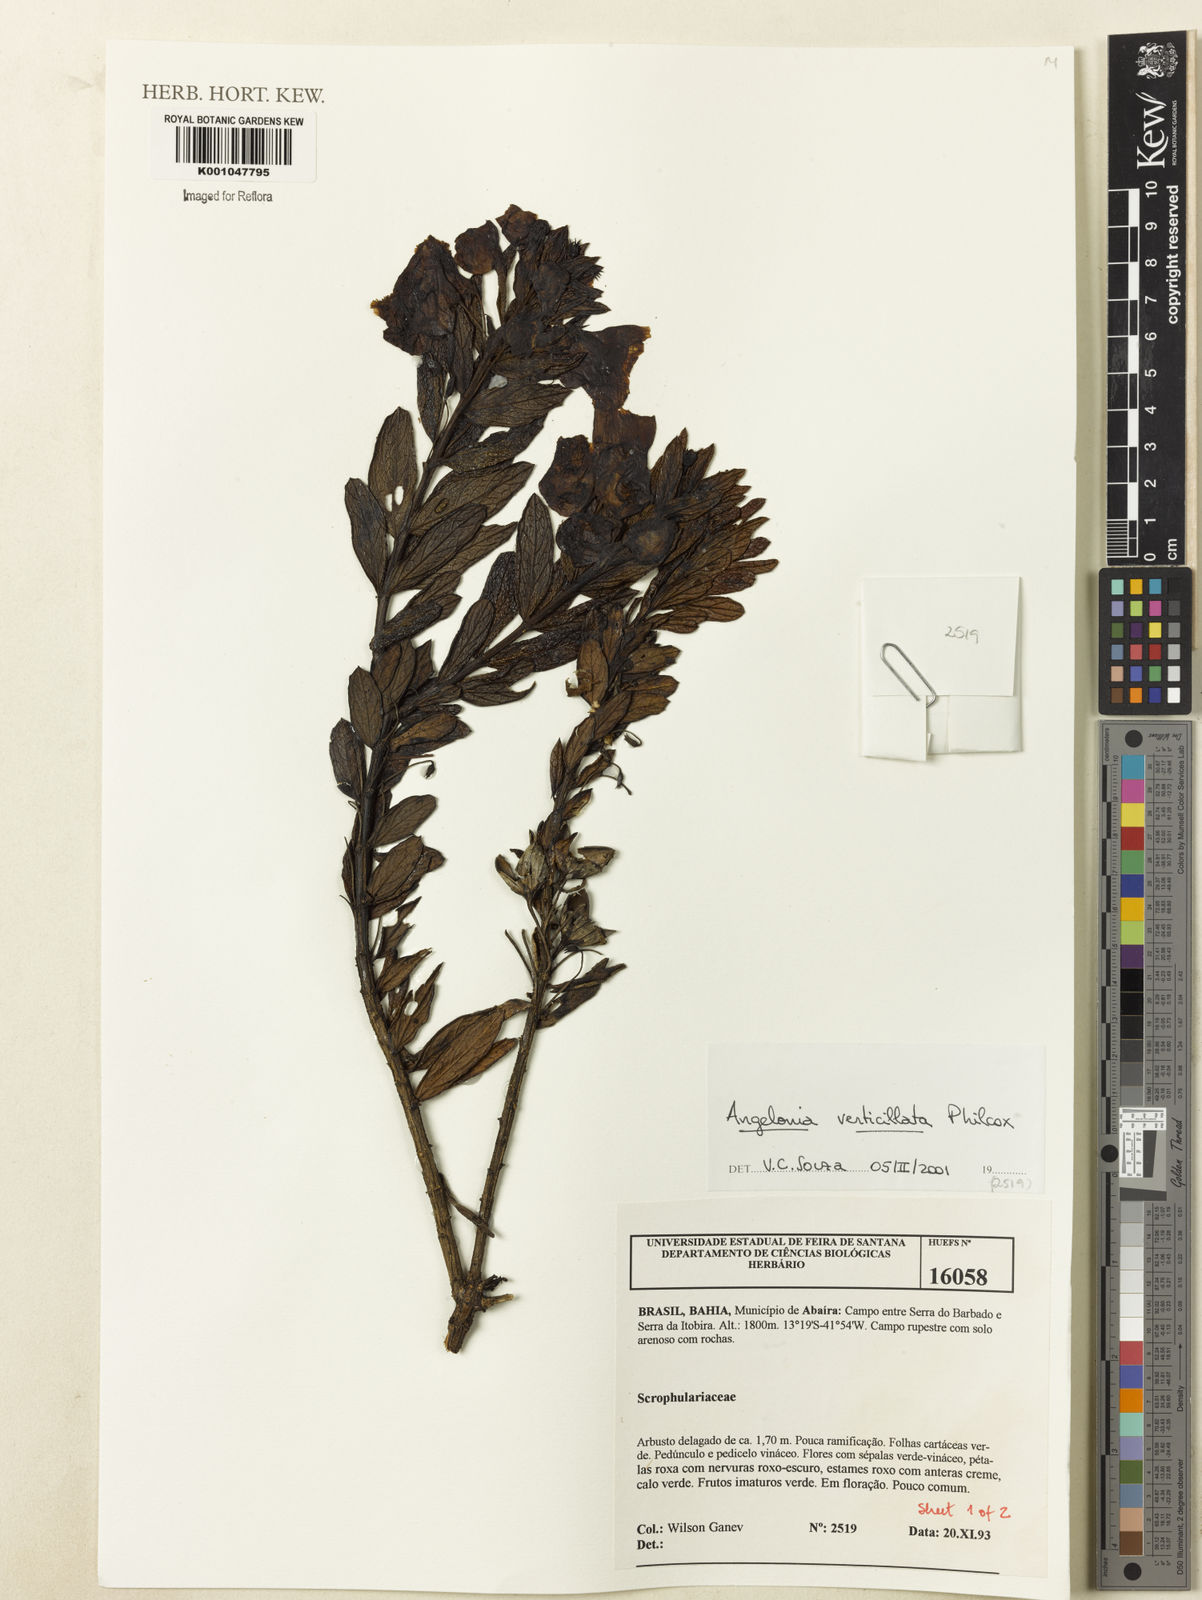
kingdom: Plantae
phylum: Tracheophyta
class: Magnoliopsida
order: Lamiales
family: Plantaginaceae
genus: Angelonia
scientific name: Angelonia verticillata
